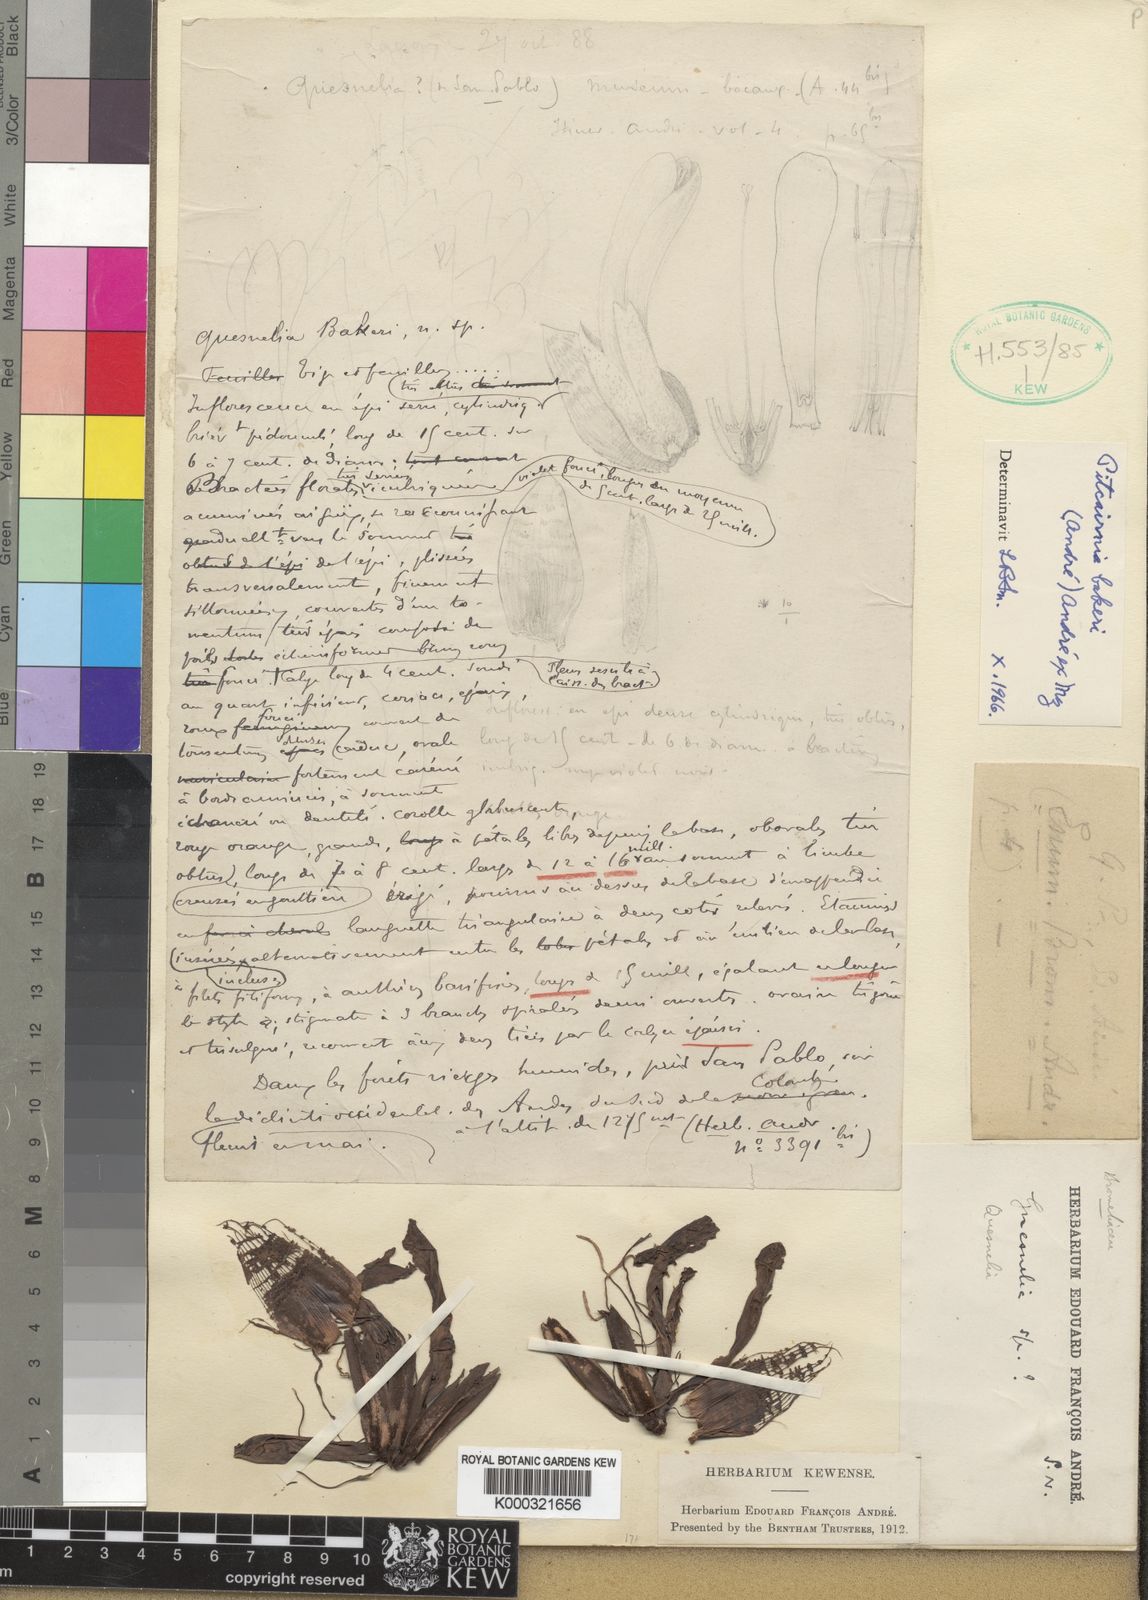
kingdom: Plantae
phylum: Tracheophyta
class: Liliopsida
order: Poales
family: Bromeliaceae
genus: Pitcairnia
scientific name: Pitcairnia
